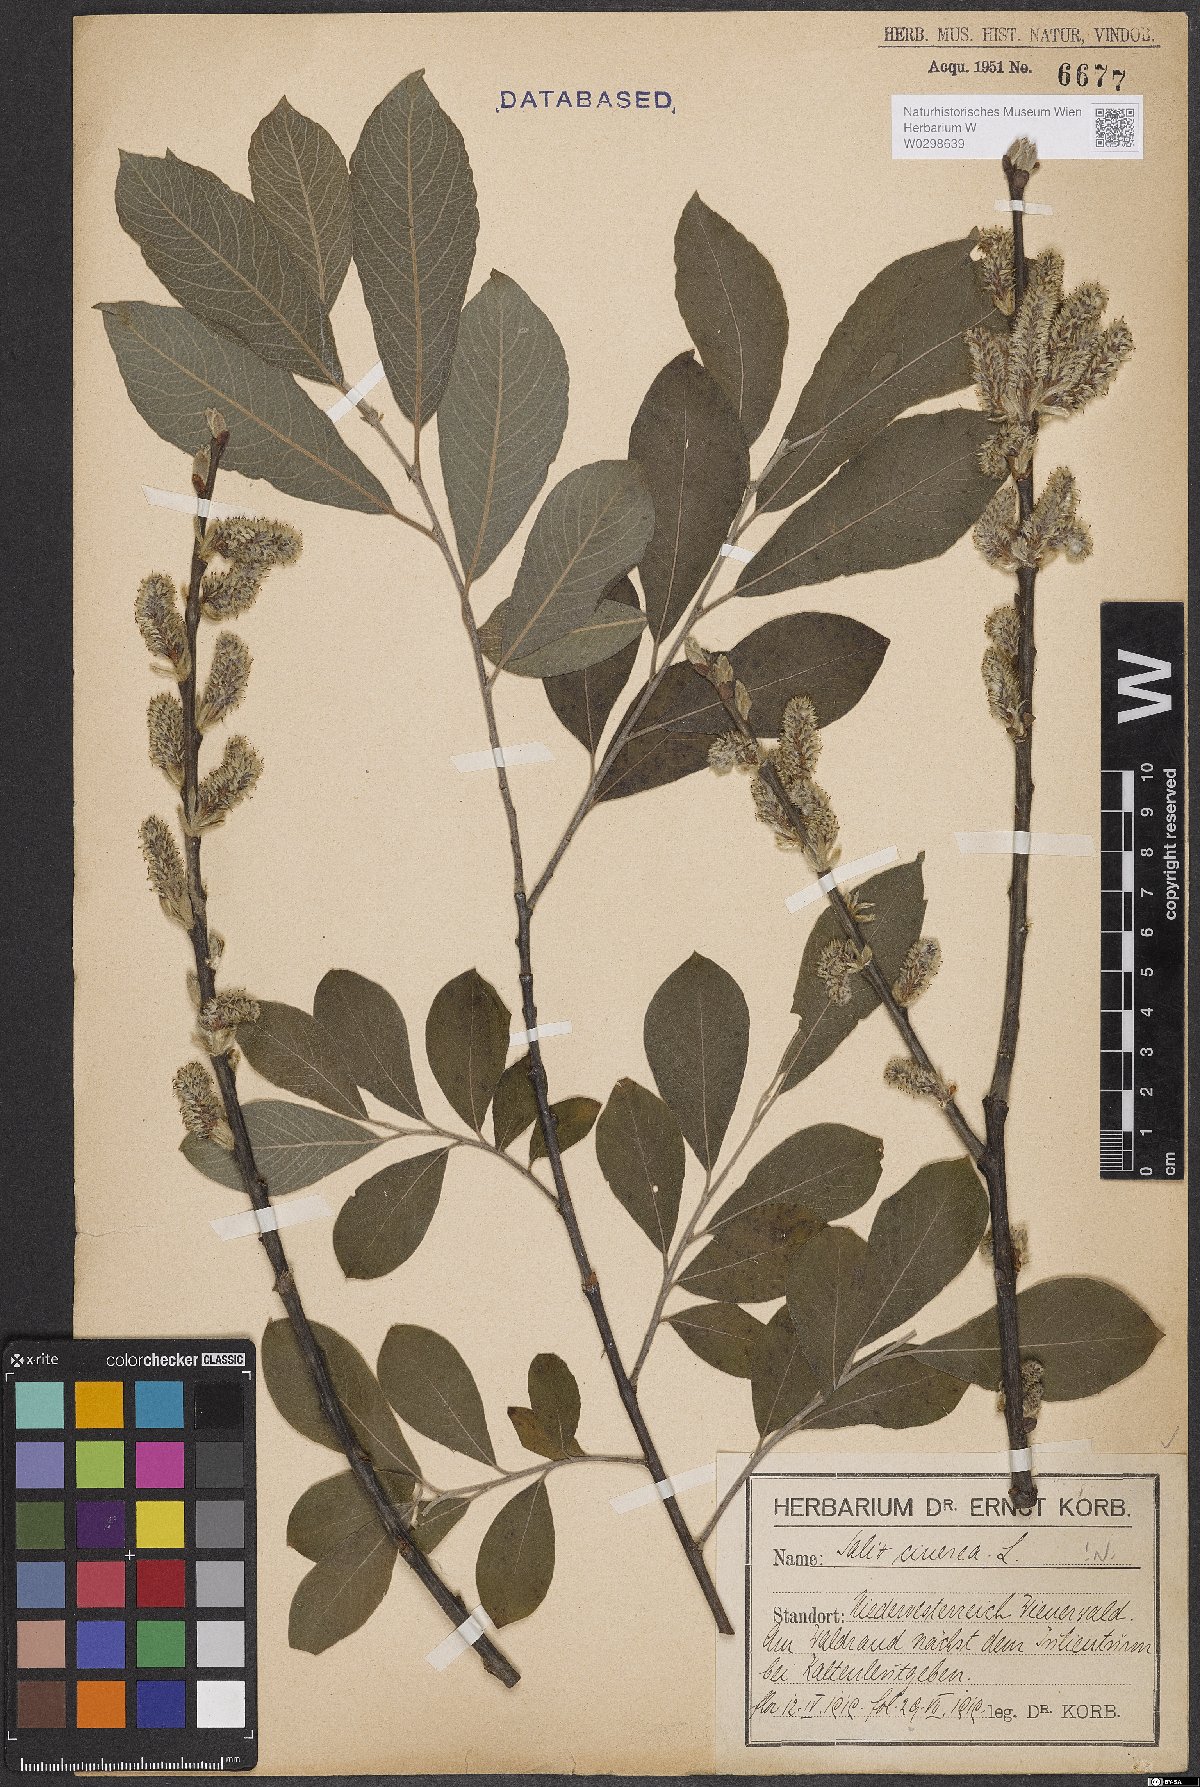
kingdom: Plantae
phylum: Tracheophyta
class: Magnoliopsida
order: Malpighiales
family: Salicaceae
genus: Salix
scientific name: Salix cinerea
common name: Common sallow
